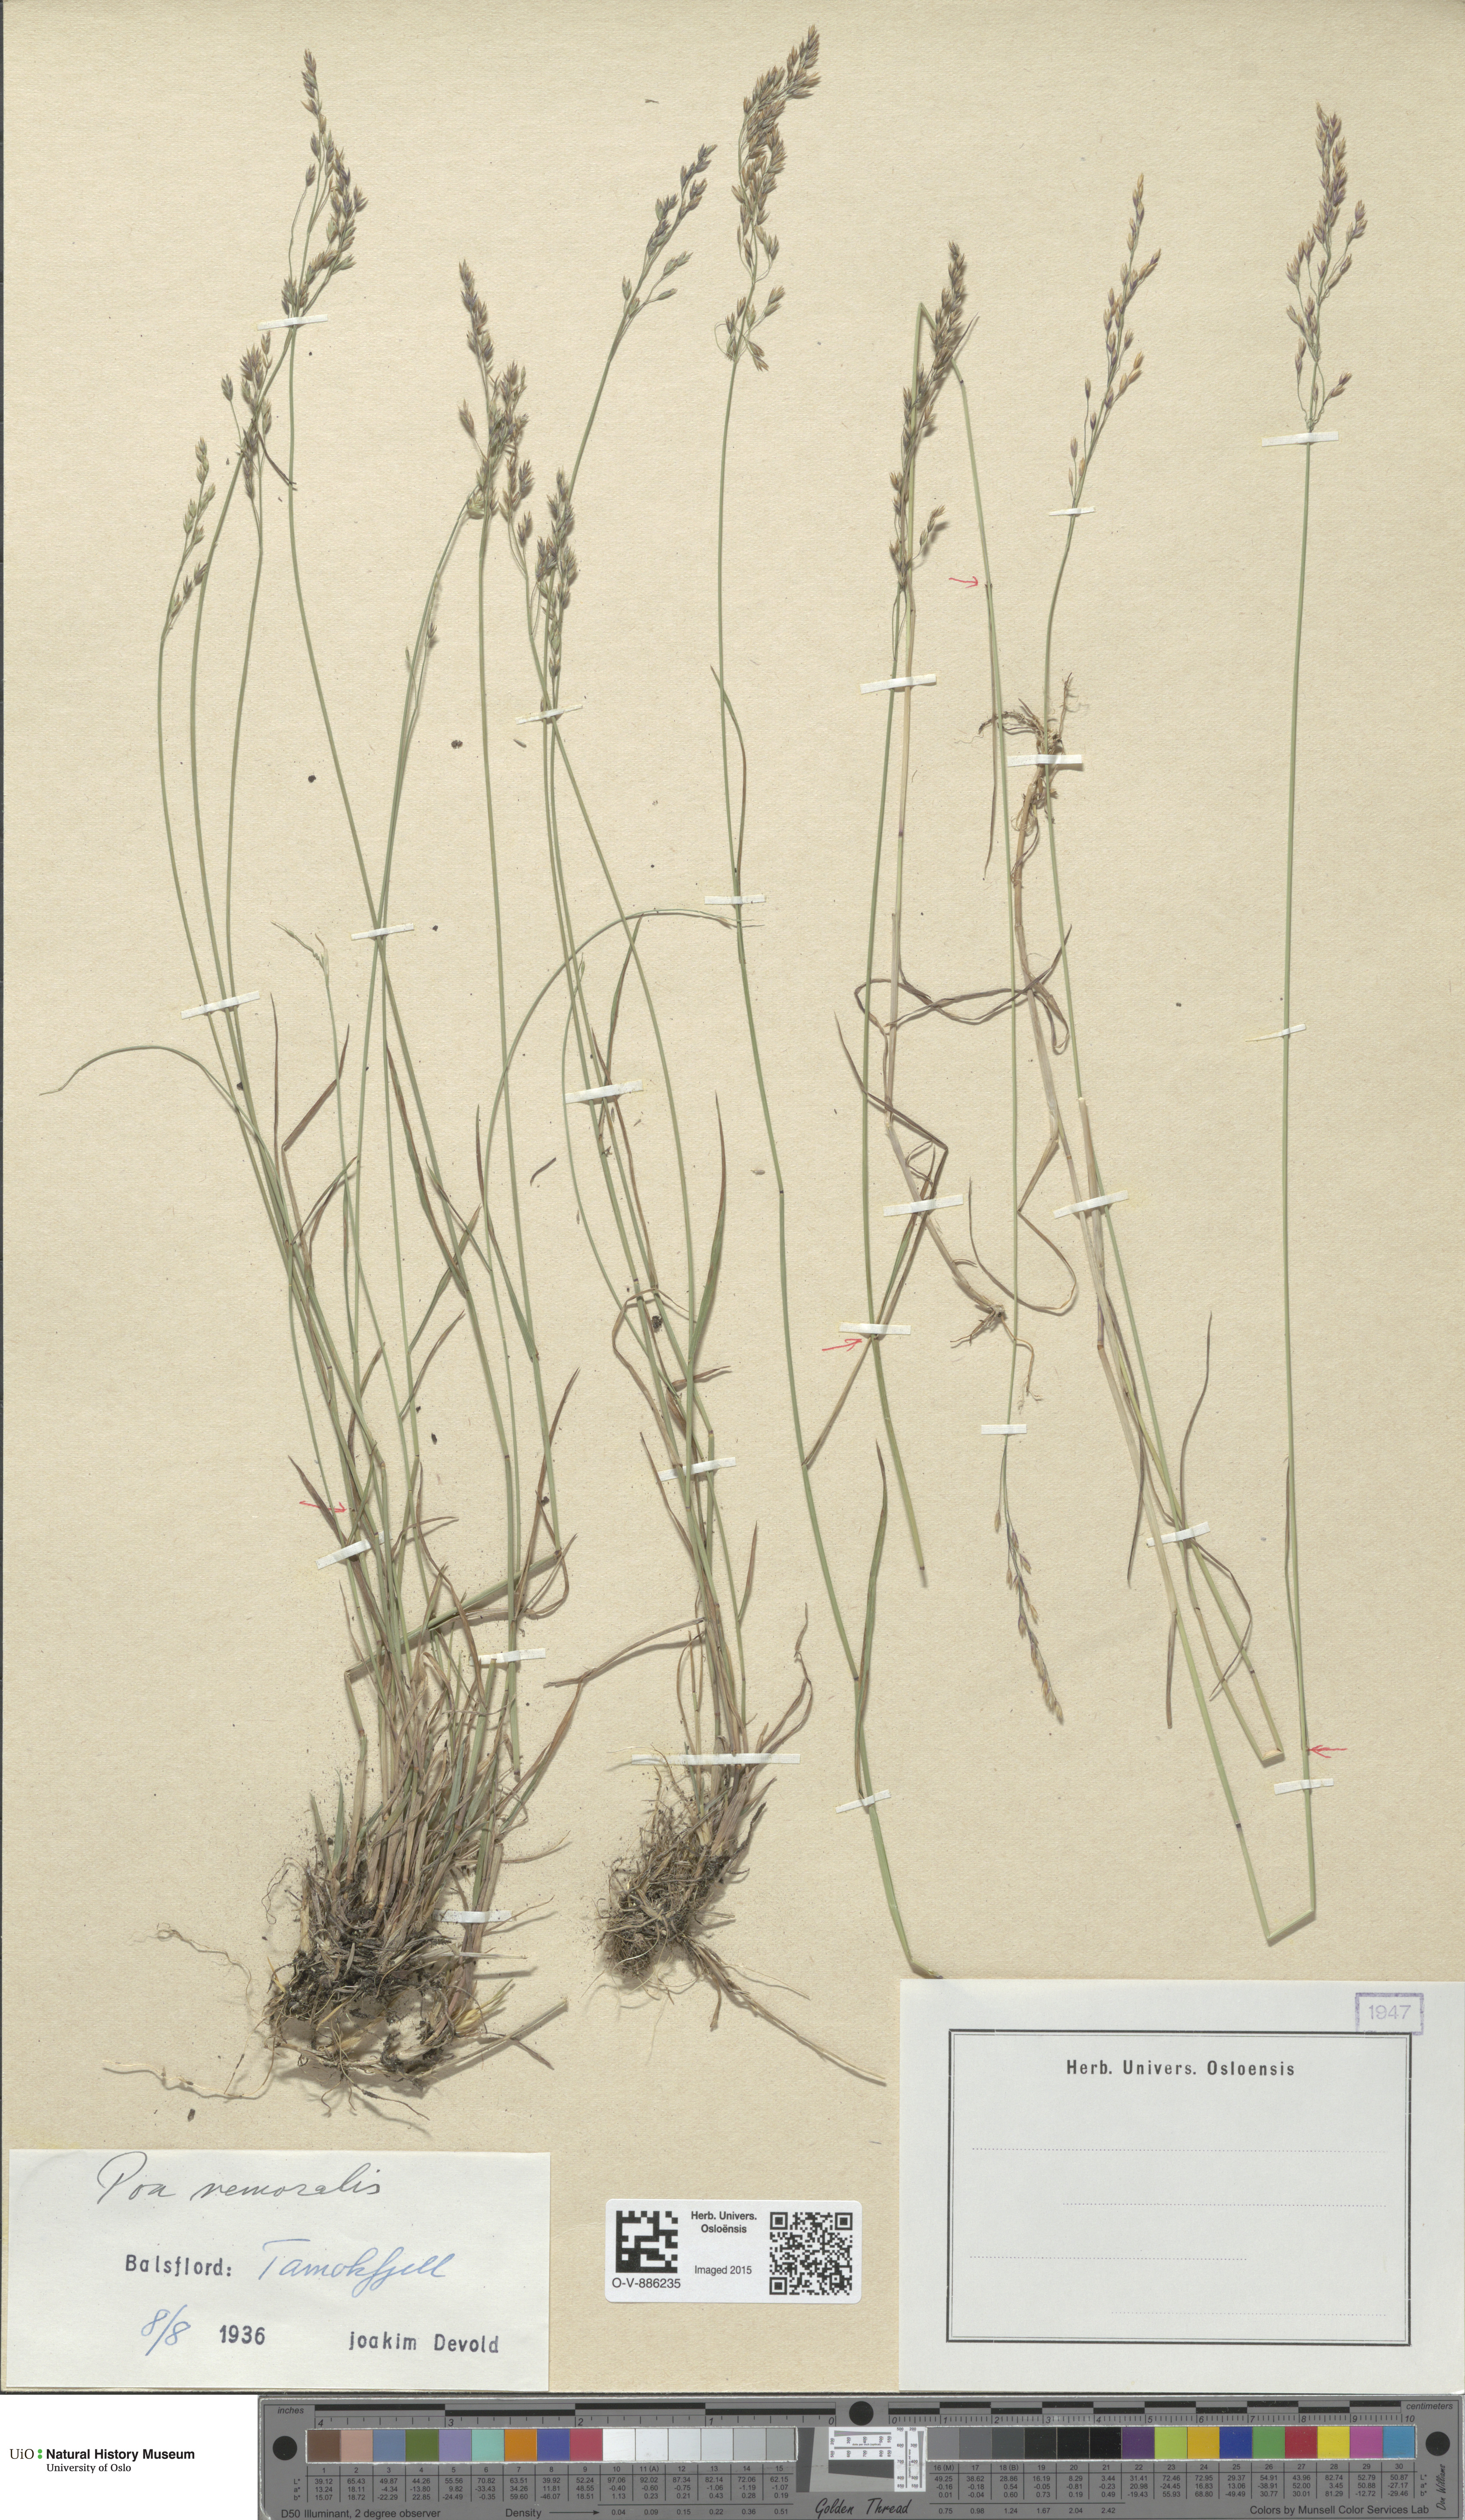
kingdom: Plantae
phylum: Tracheophyta
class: Liliopsida
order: Poales
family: Poaceae
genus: Poa
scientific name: Poa nemoralis
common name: Wood bluegrass
